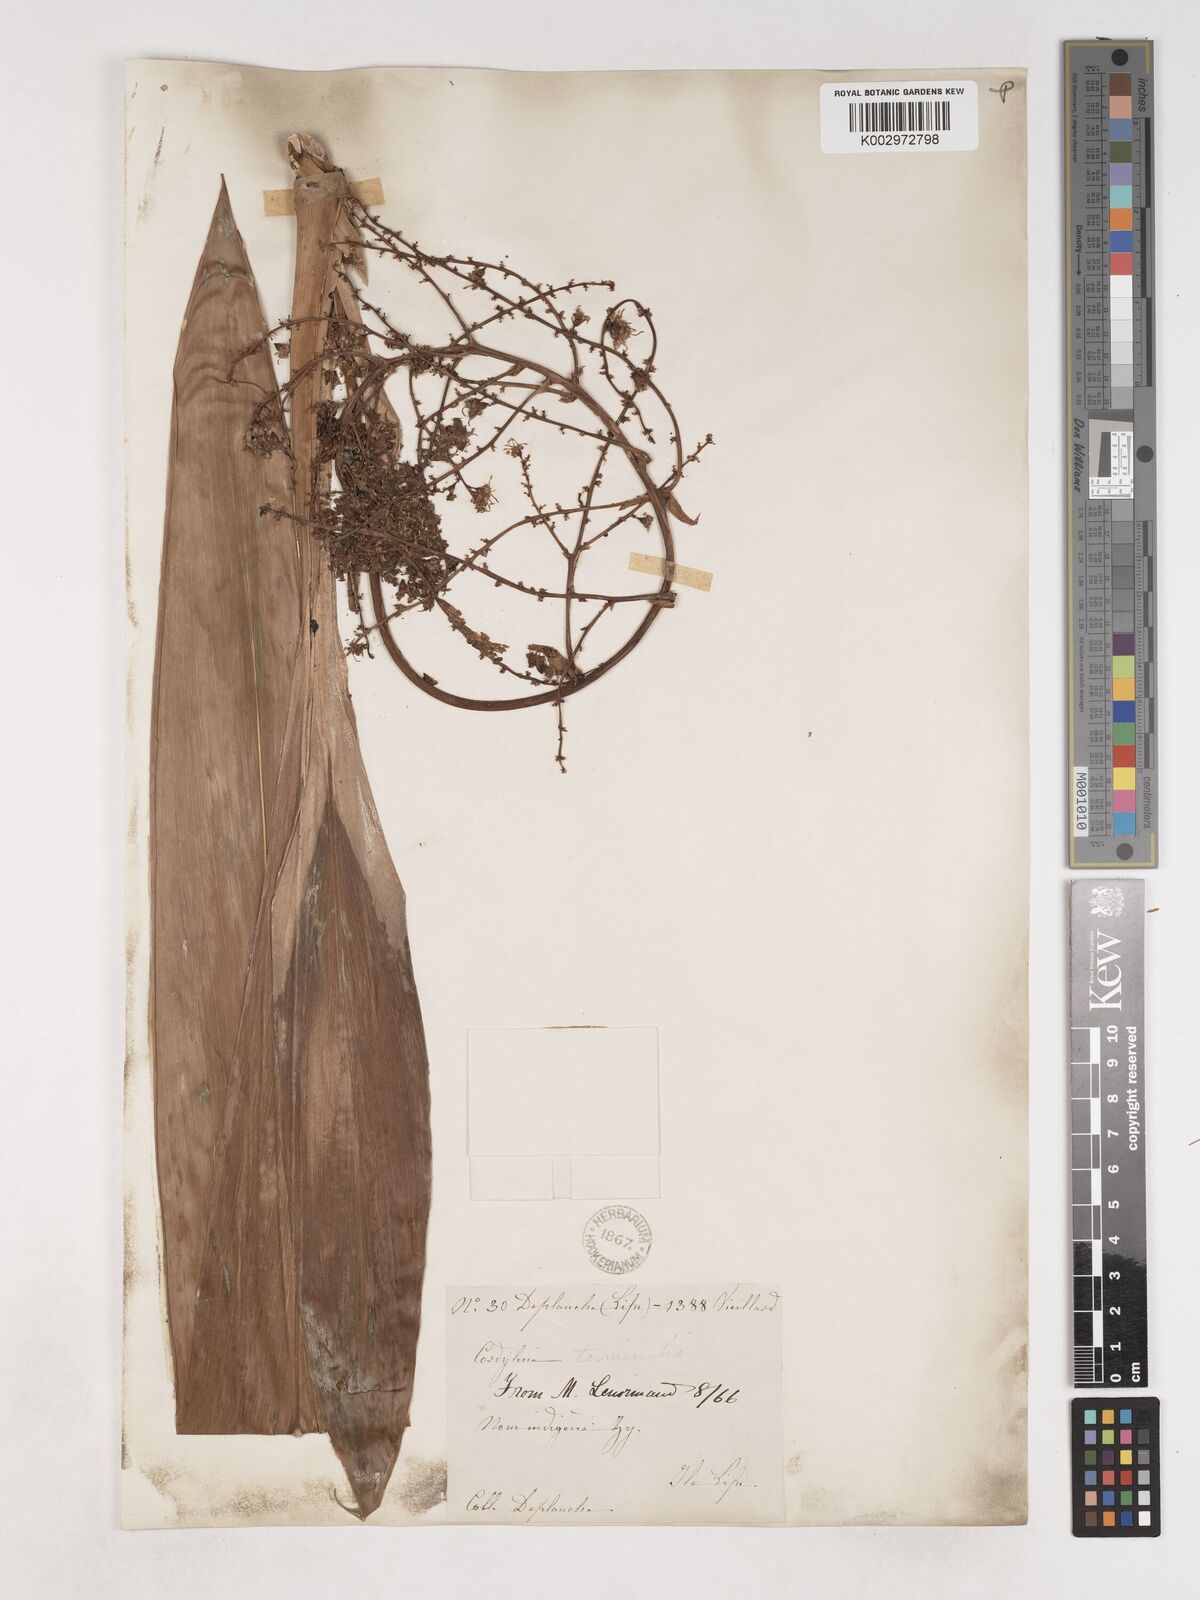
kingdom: Plantae
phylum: Tracheophyta
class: Liliopsida
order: Asparagales
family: Asparagaceae
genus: Cordyline
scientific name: Cordyline fruticosa
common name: Good-luck-plant
